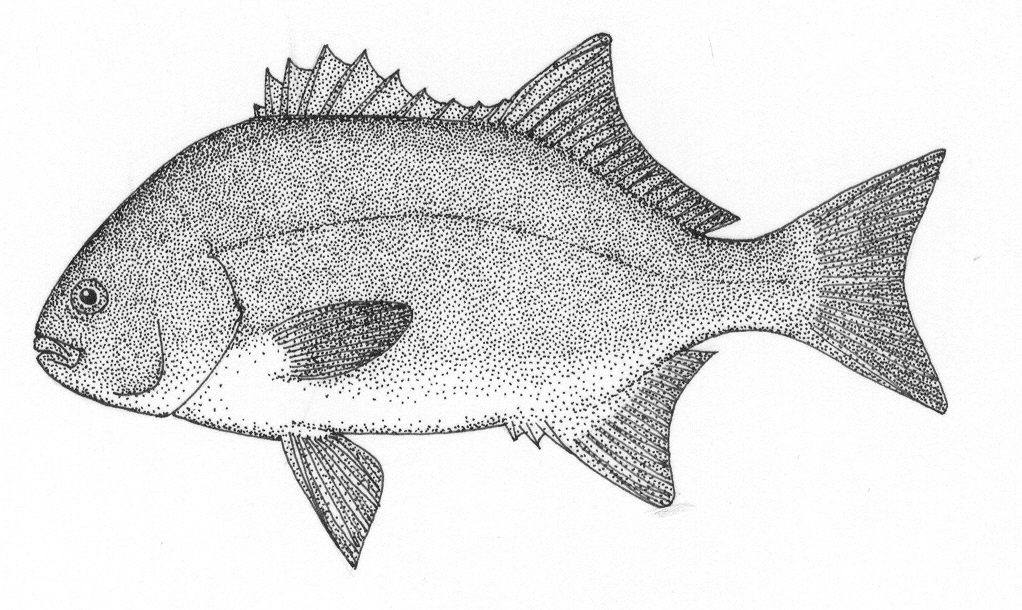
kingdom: Animalia
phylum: Chordata
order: Perciformes
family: Dichistiidae
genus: Dichistius
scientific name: Dichistius capensis
